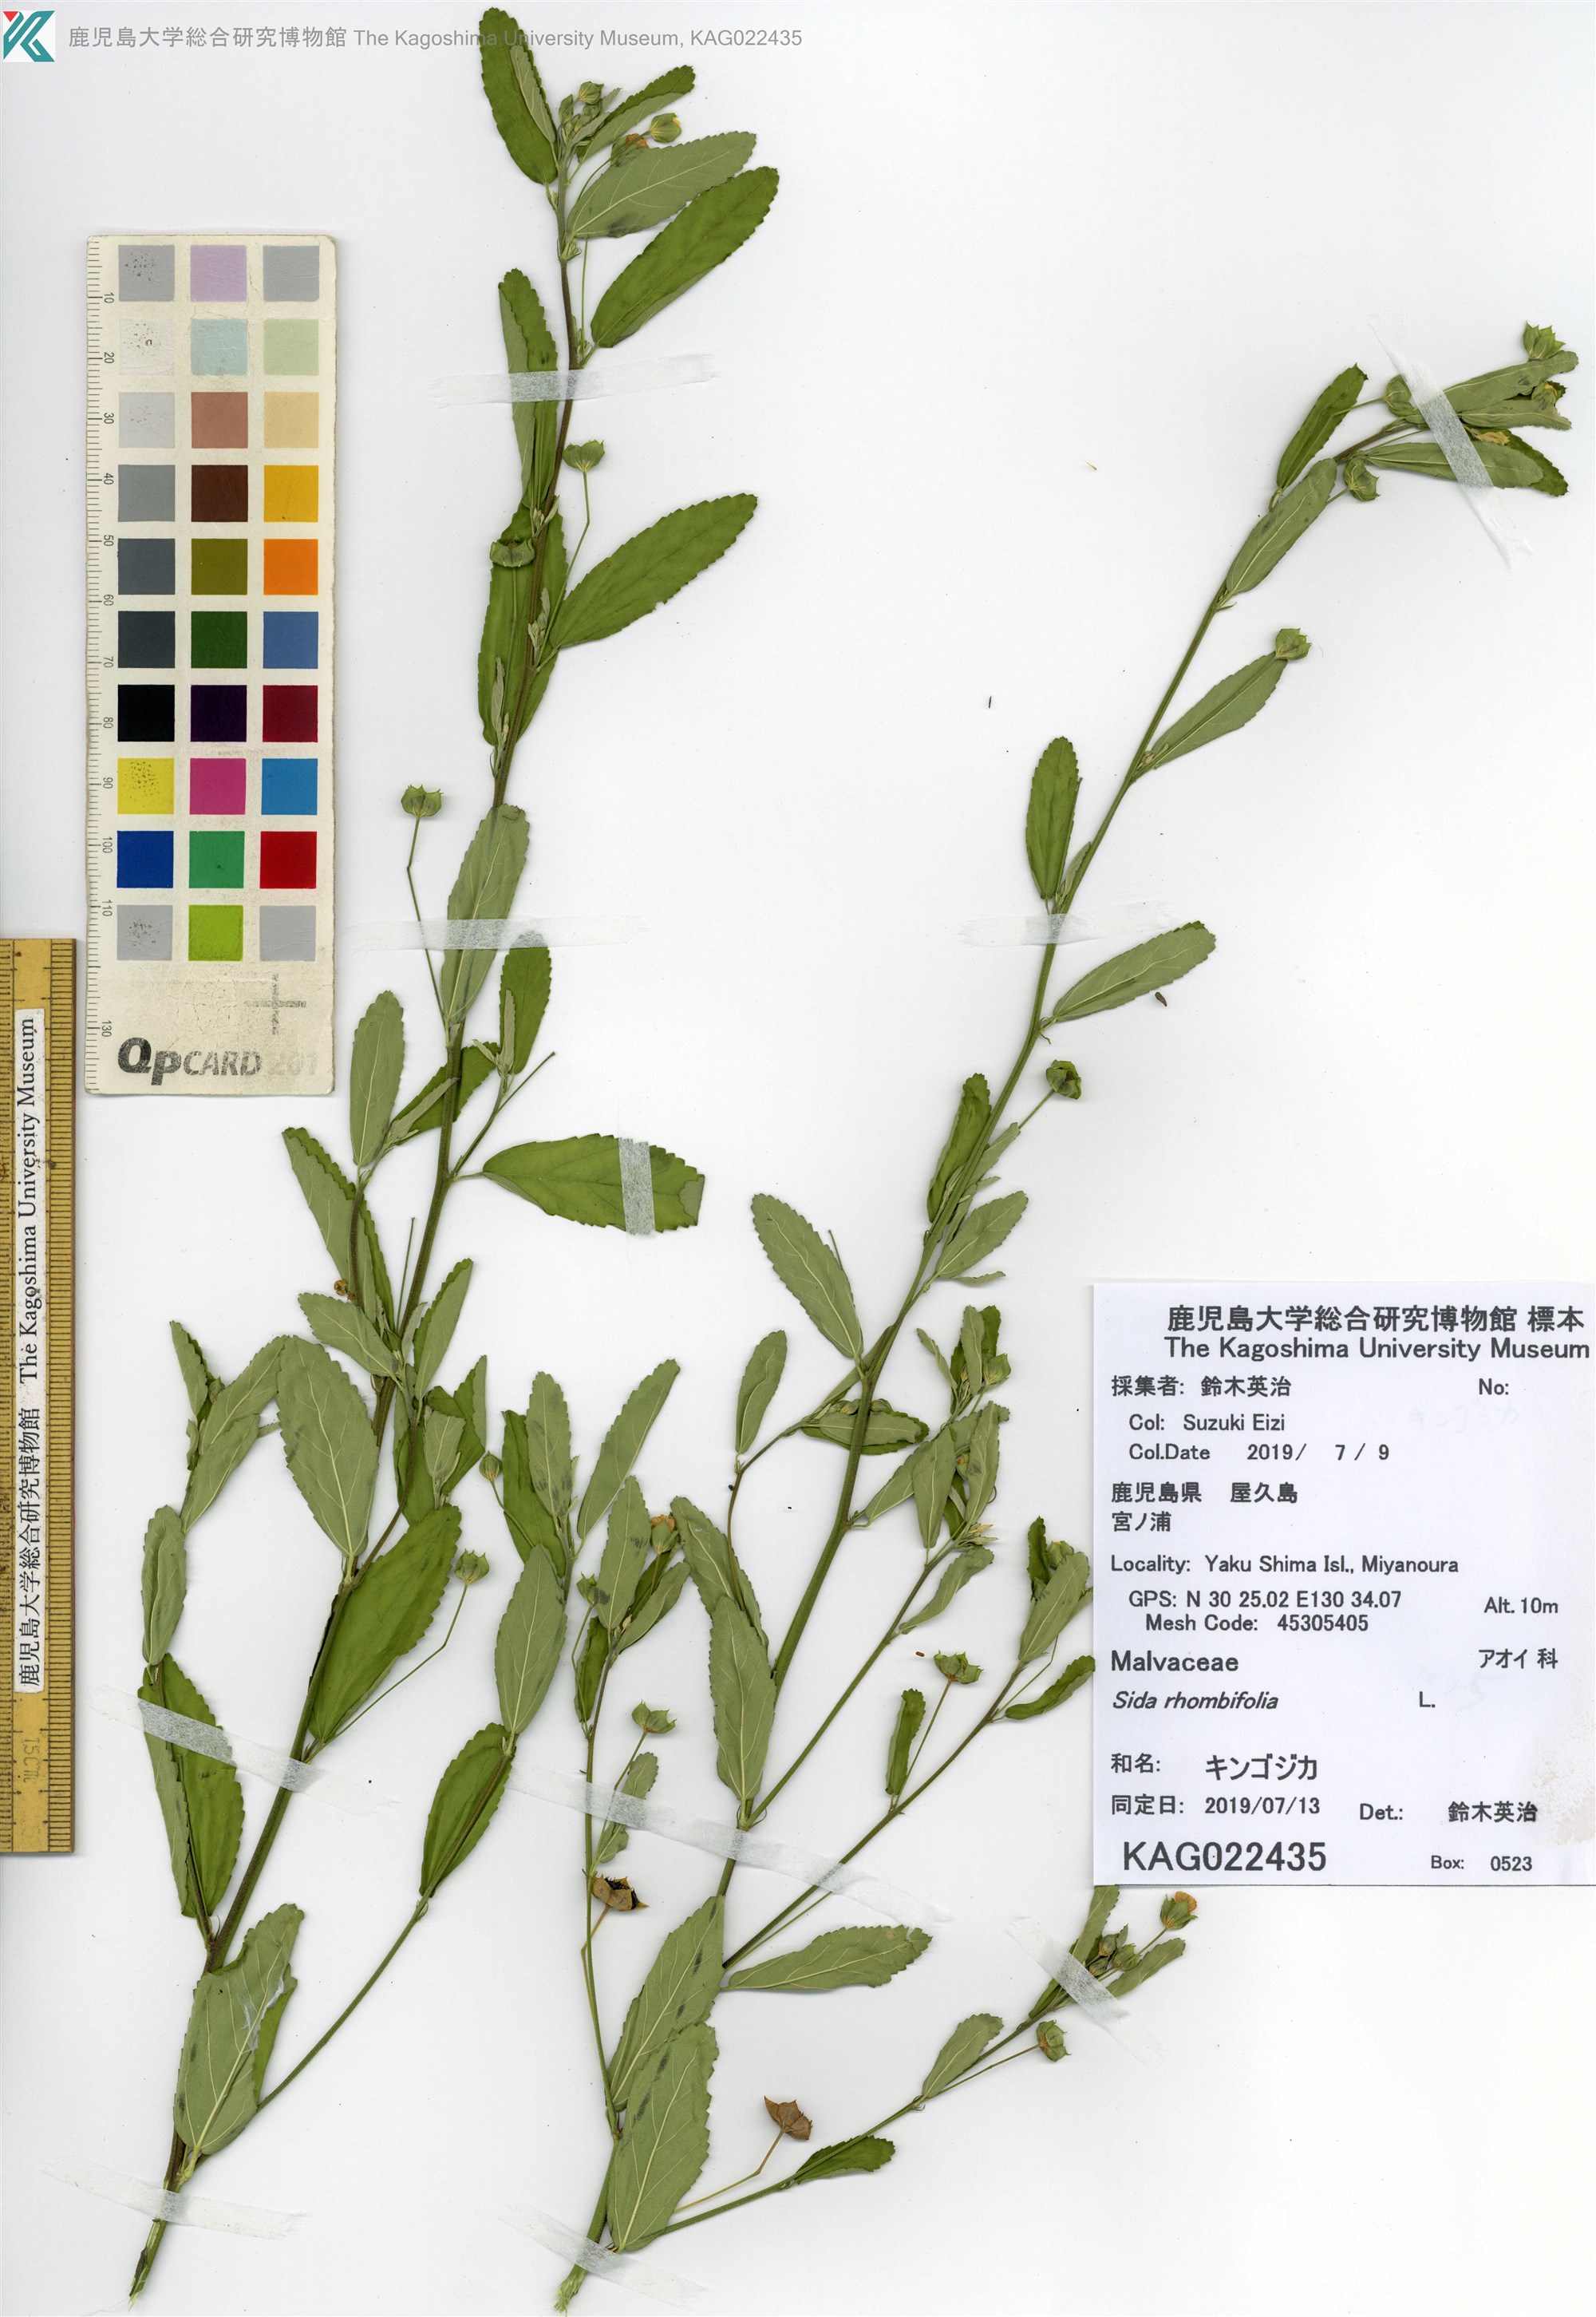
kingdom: Plantae
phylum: Tracheophyta
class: Magnoliopsida
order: Malvales
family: Malvaceae
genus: Sida
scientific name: Sida rhombifolia
